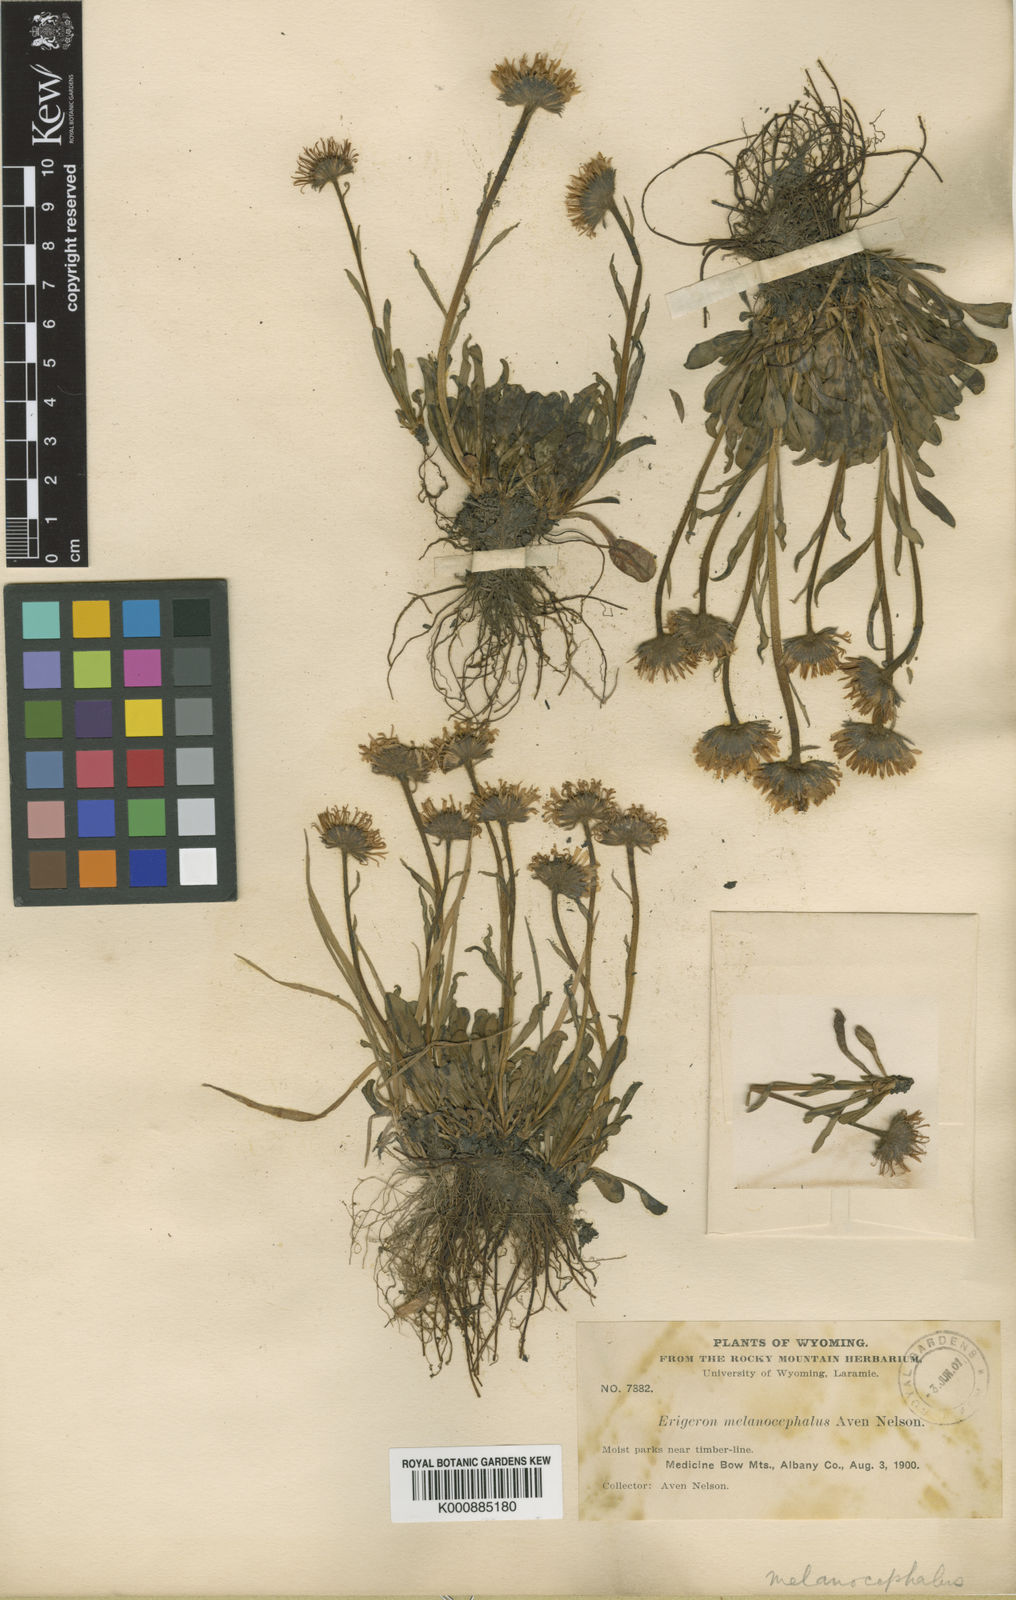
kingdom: Plantae
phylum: Tracheophyta
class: Magnoliopsida
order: Asterales
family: Asteraceae
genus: Erigeron
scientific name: Erigeron
